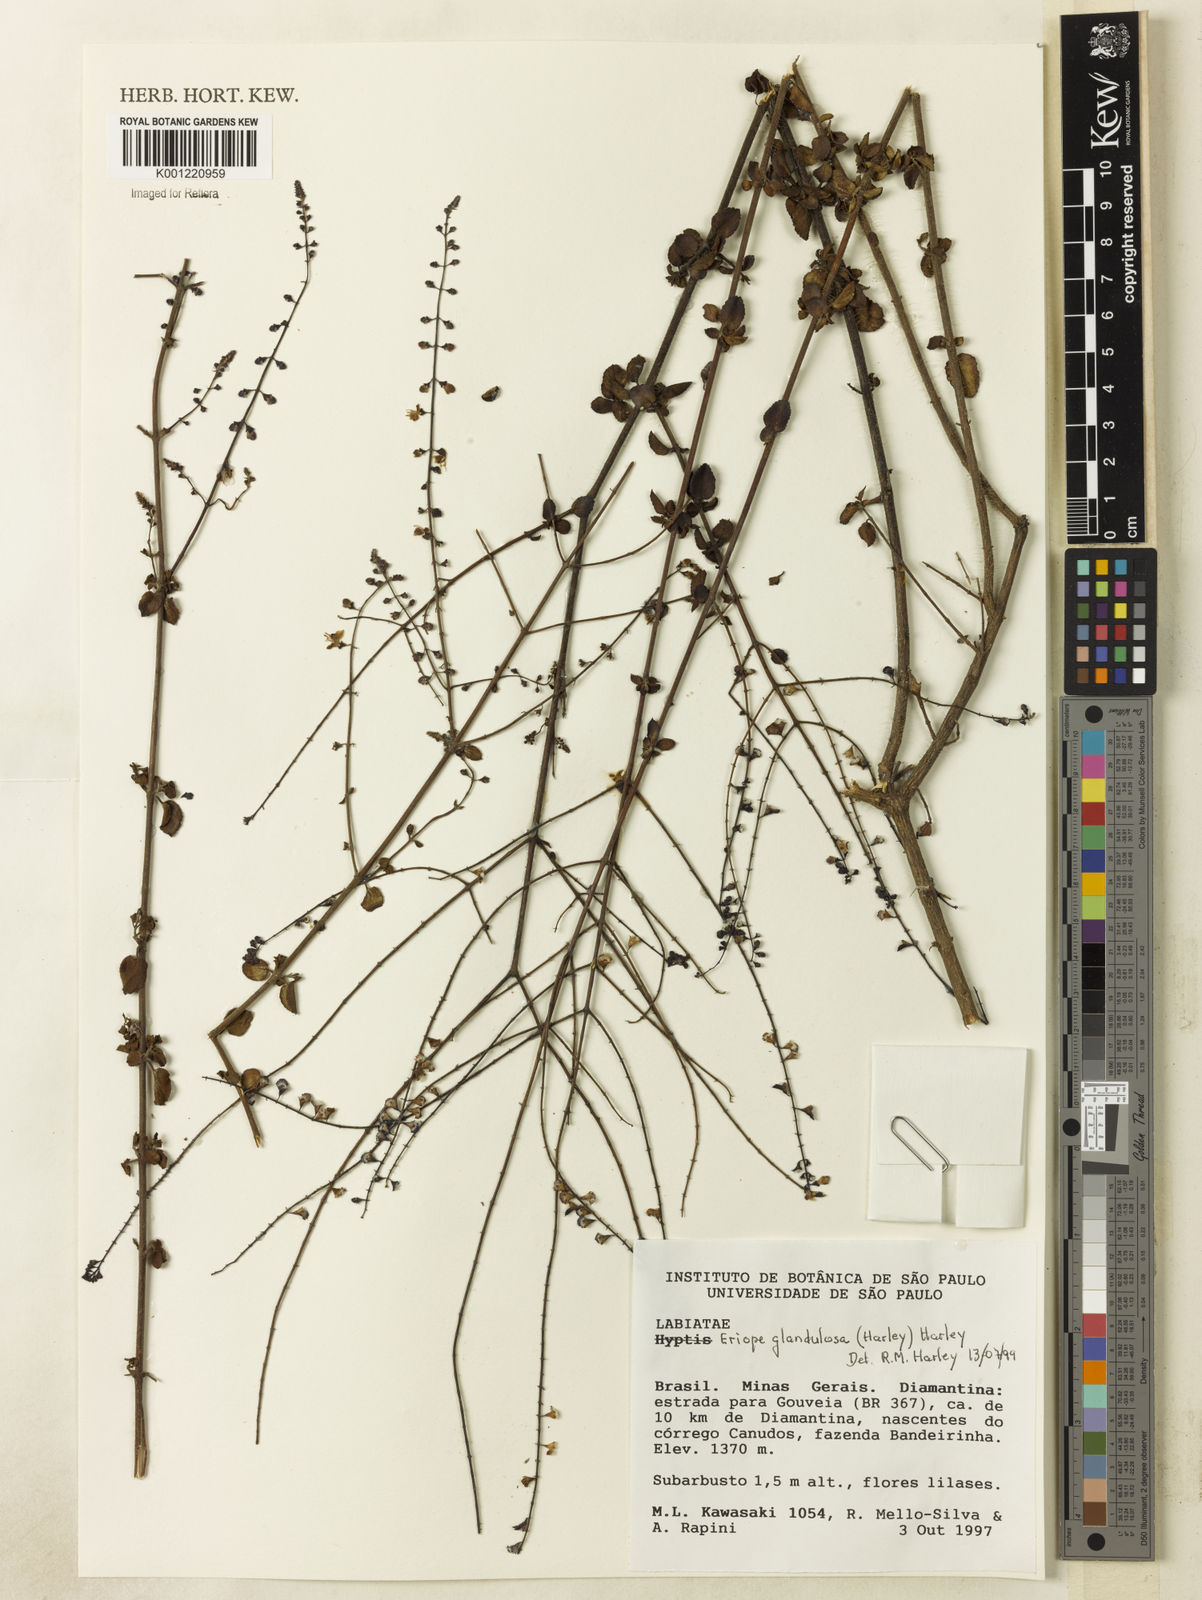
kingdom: Plantae
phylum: Tracheophyta
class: Magnoliopsida
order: Lamiales
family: Lamiaceae
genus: Eriope
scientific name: Eriope glandulosa
